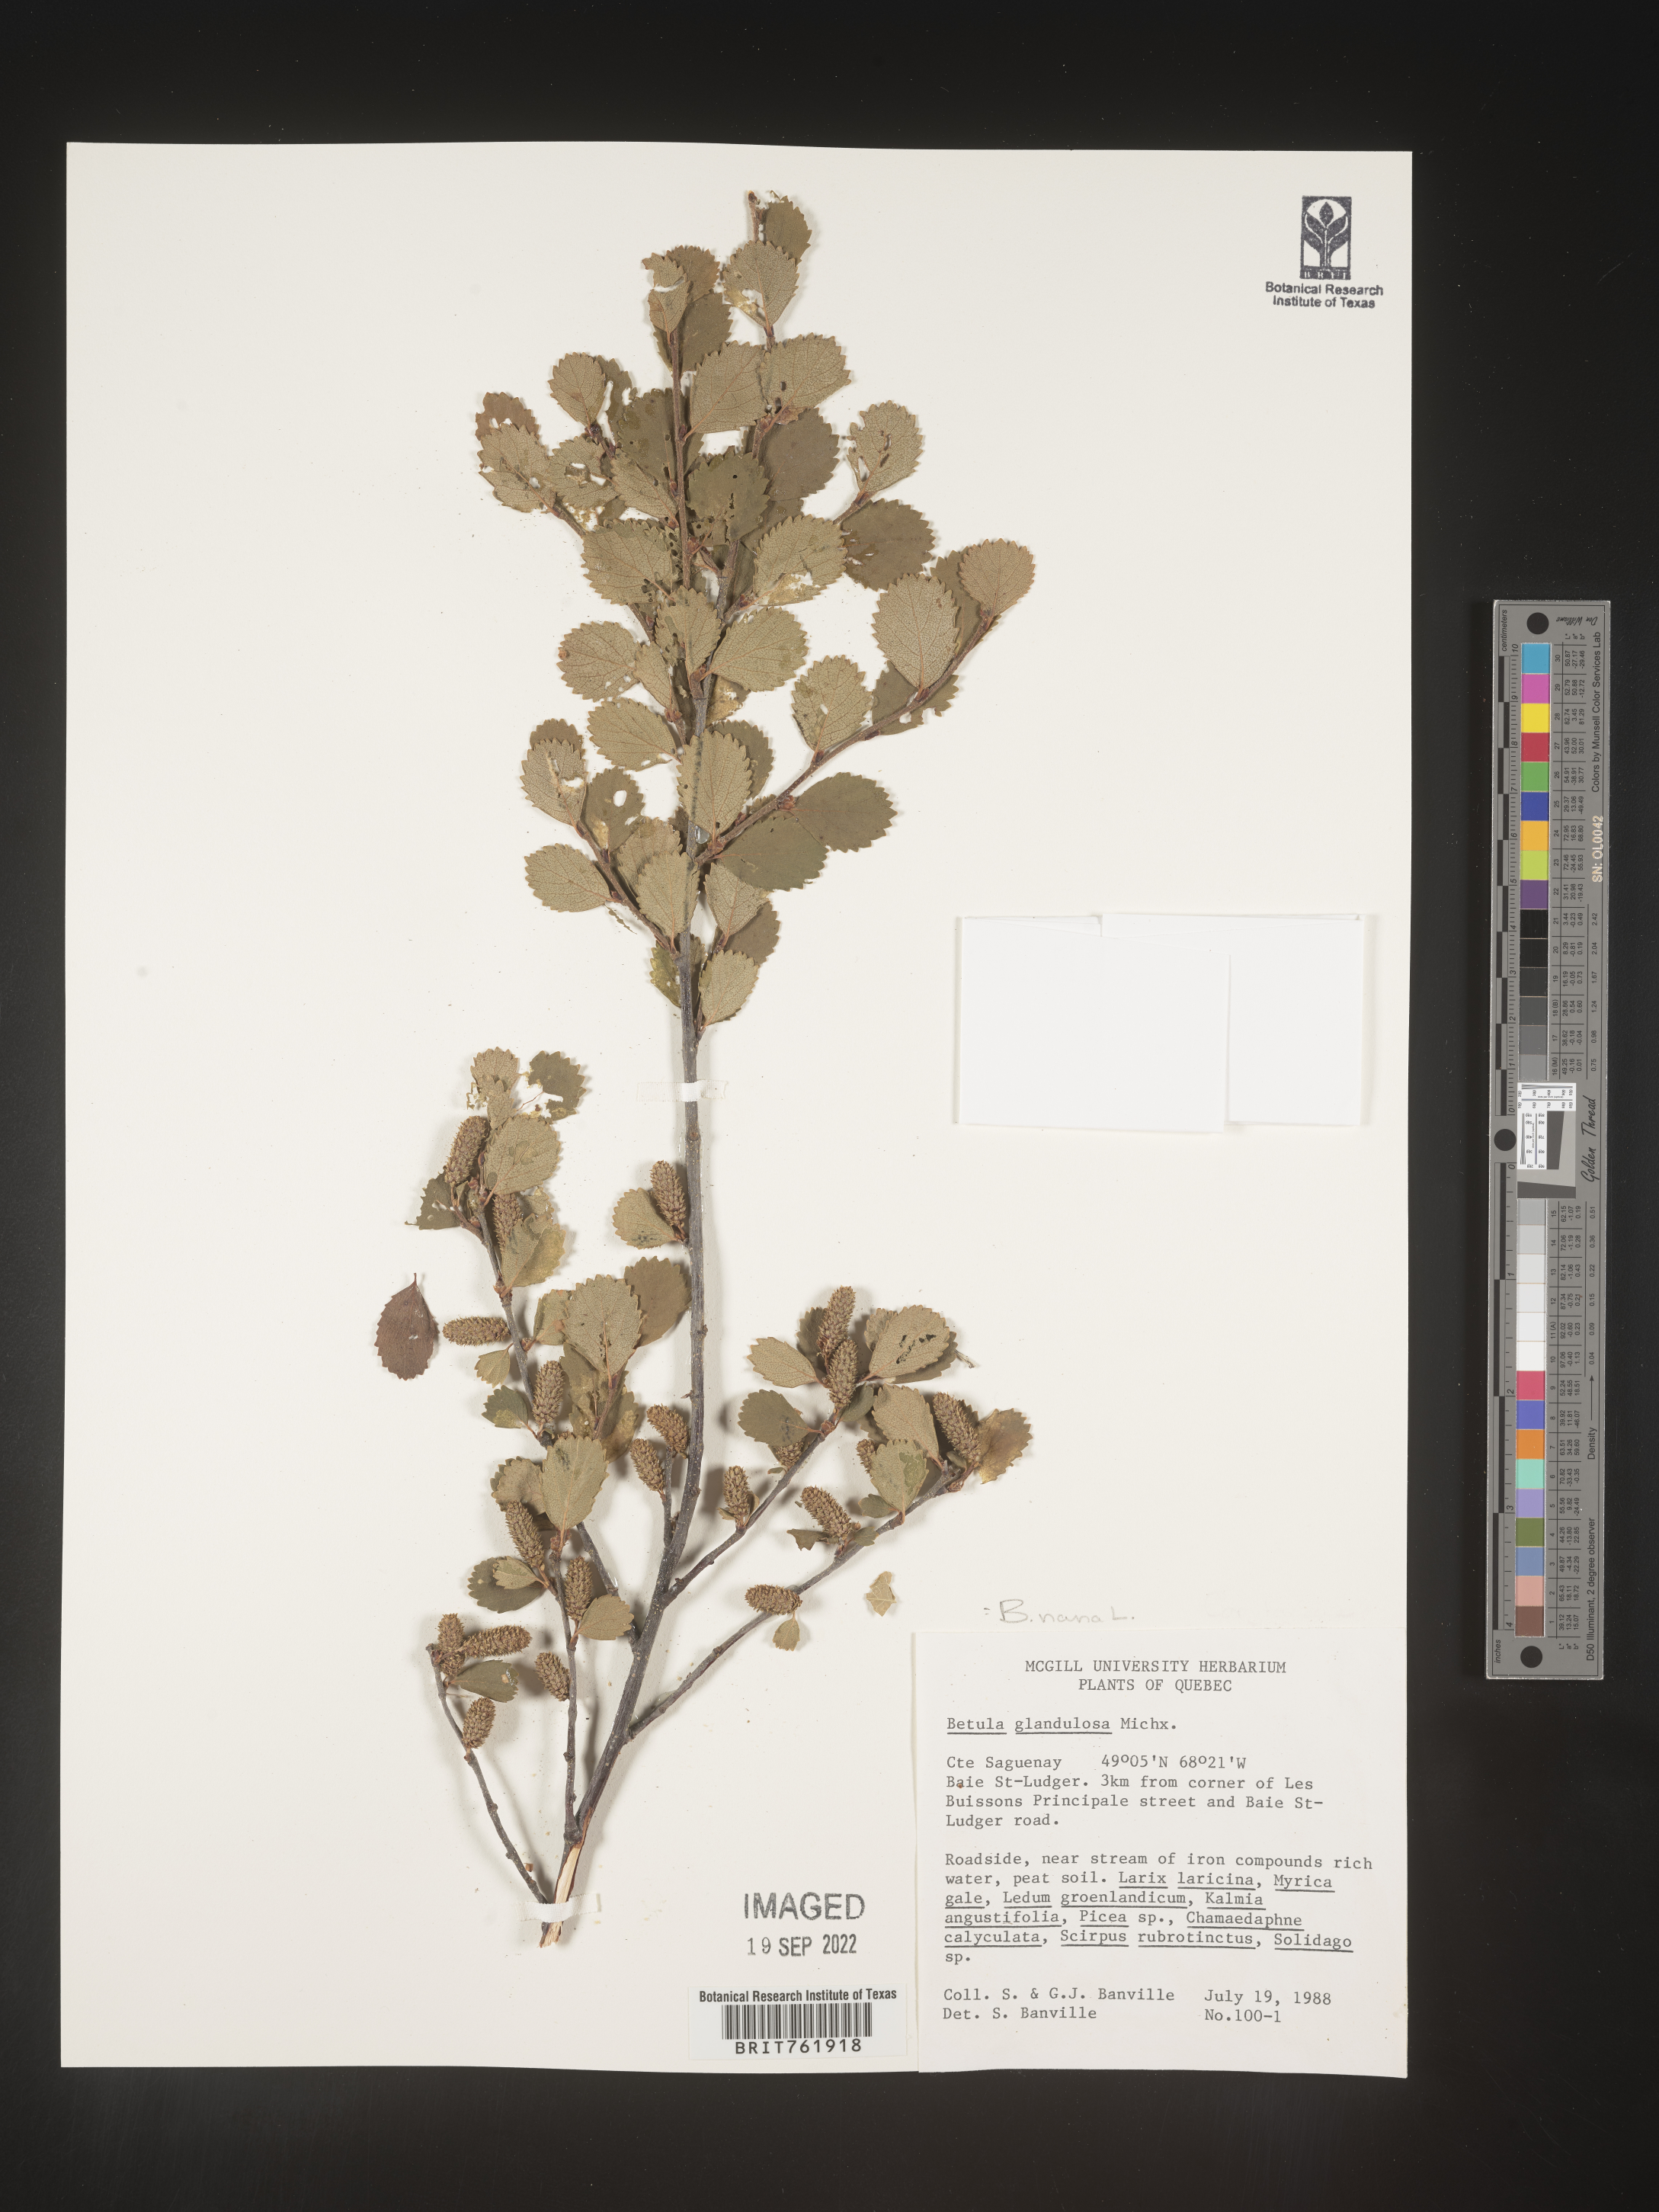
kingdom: Plantae
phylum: Tracheophyta
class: Magnoliopsida
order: Fagales
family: Betulaceae
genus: Betula
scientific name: Betula nana
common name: Arctic dwarf birch
